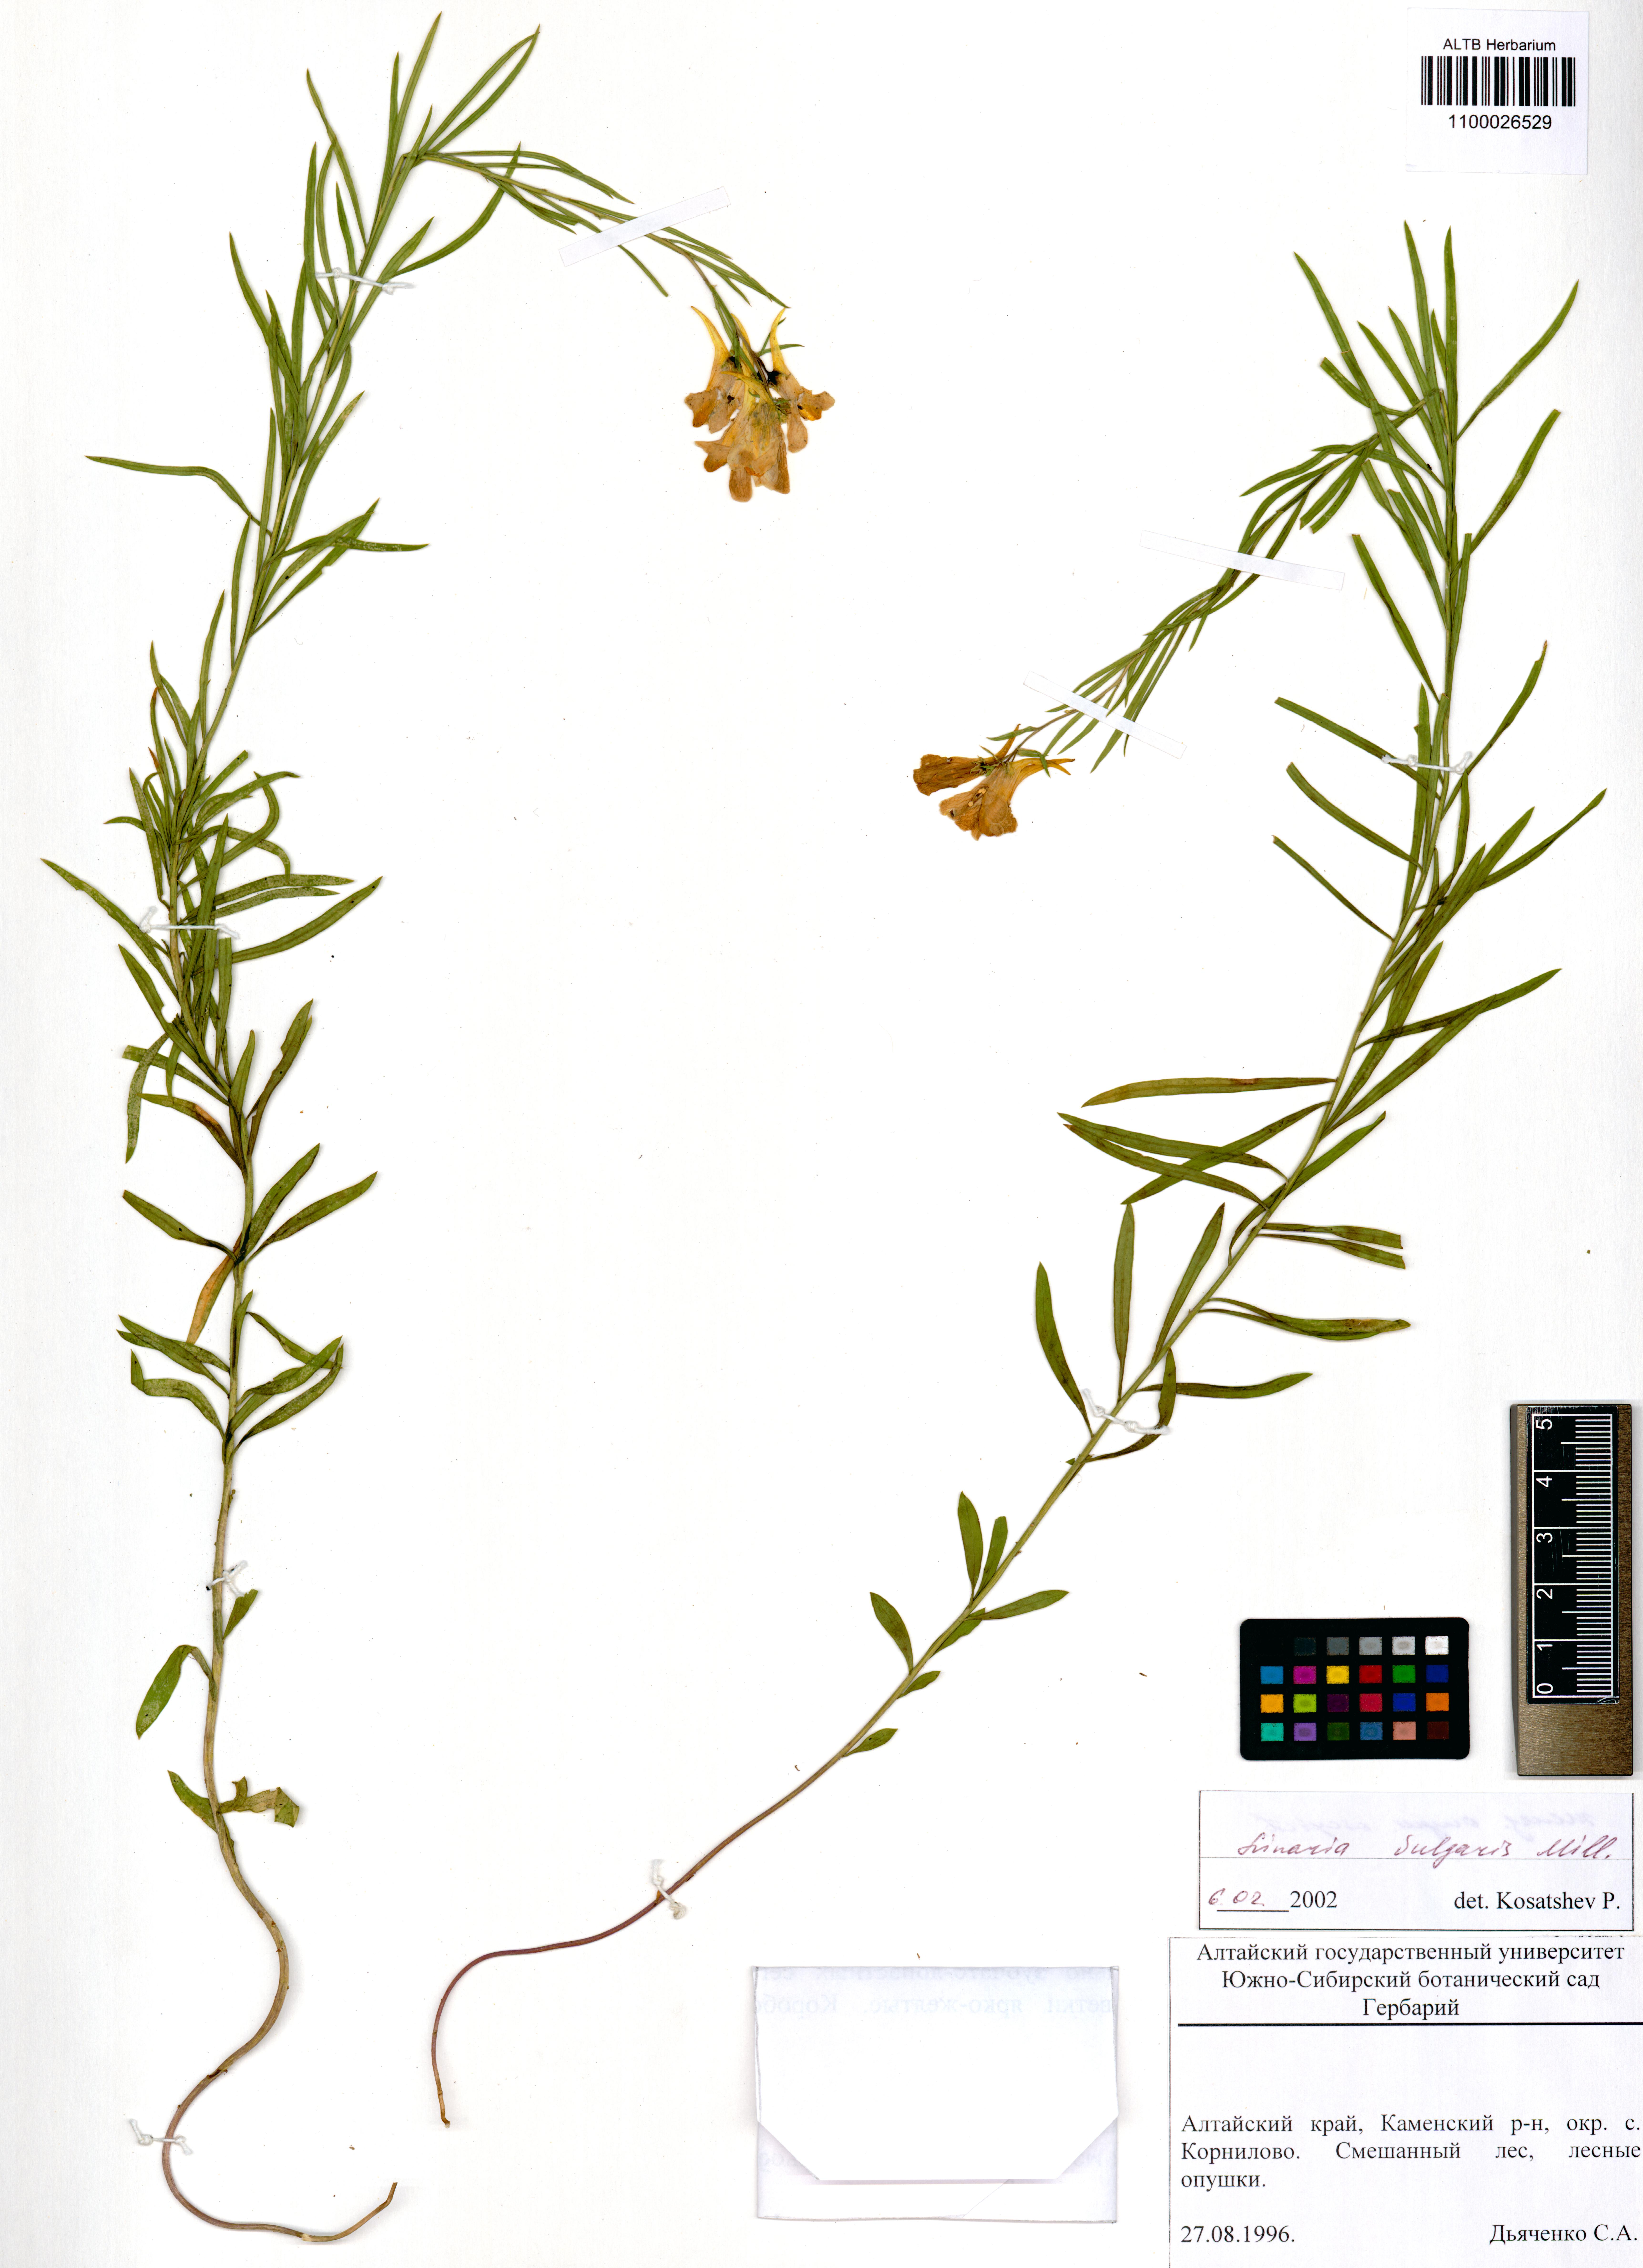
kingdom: Plantae
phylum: Tracheophyta
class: Magnoliopsida
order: Lamiales
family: Plantaginaceae
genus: Linaria
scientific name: Linaria vulgaris
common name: Butter and eggs
